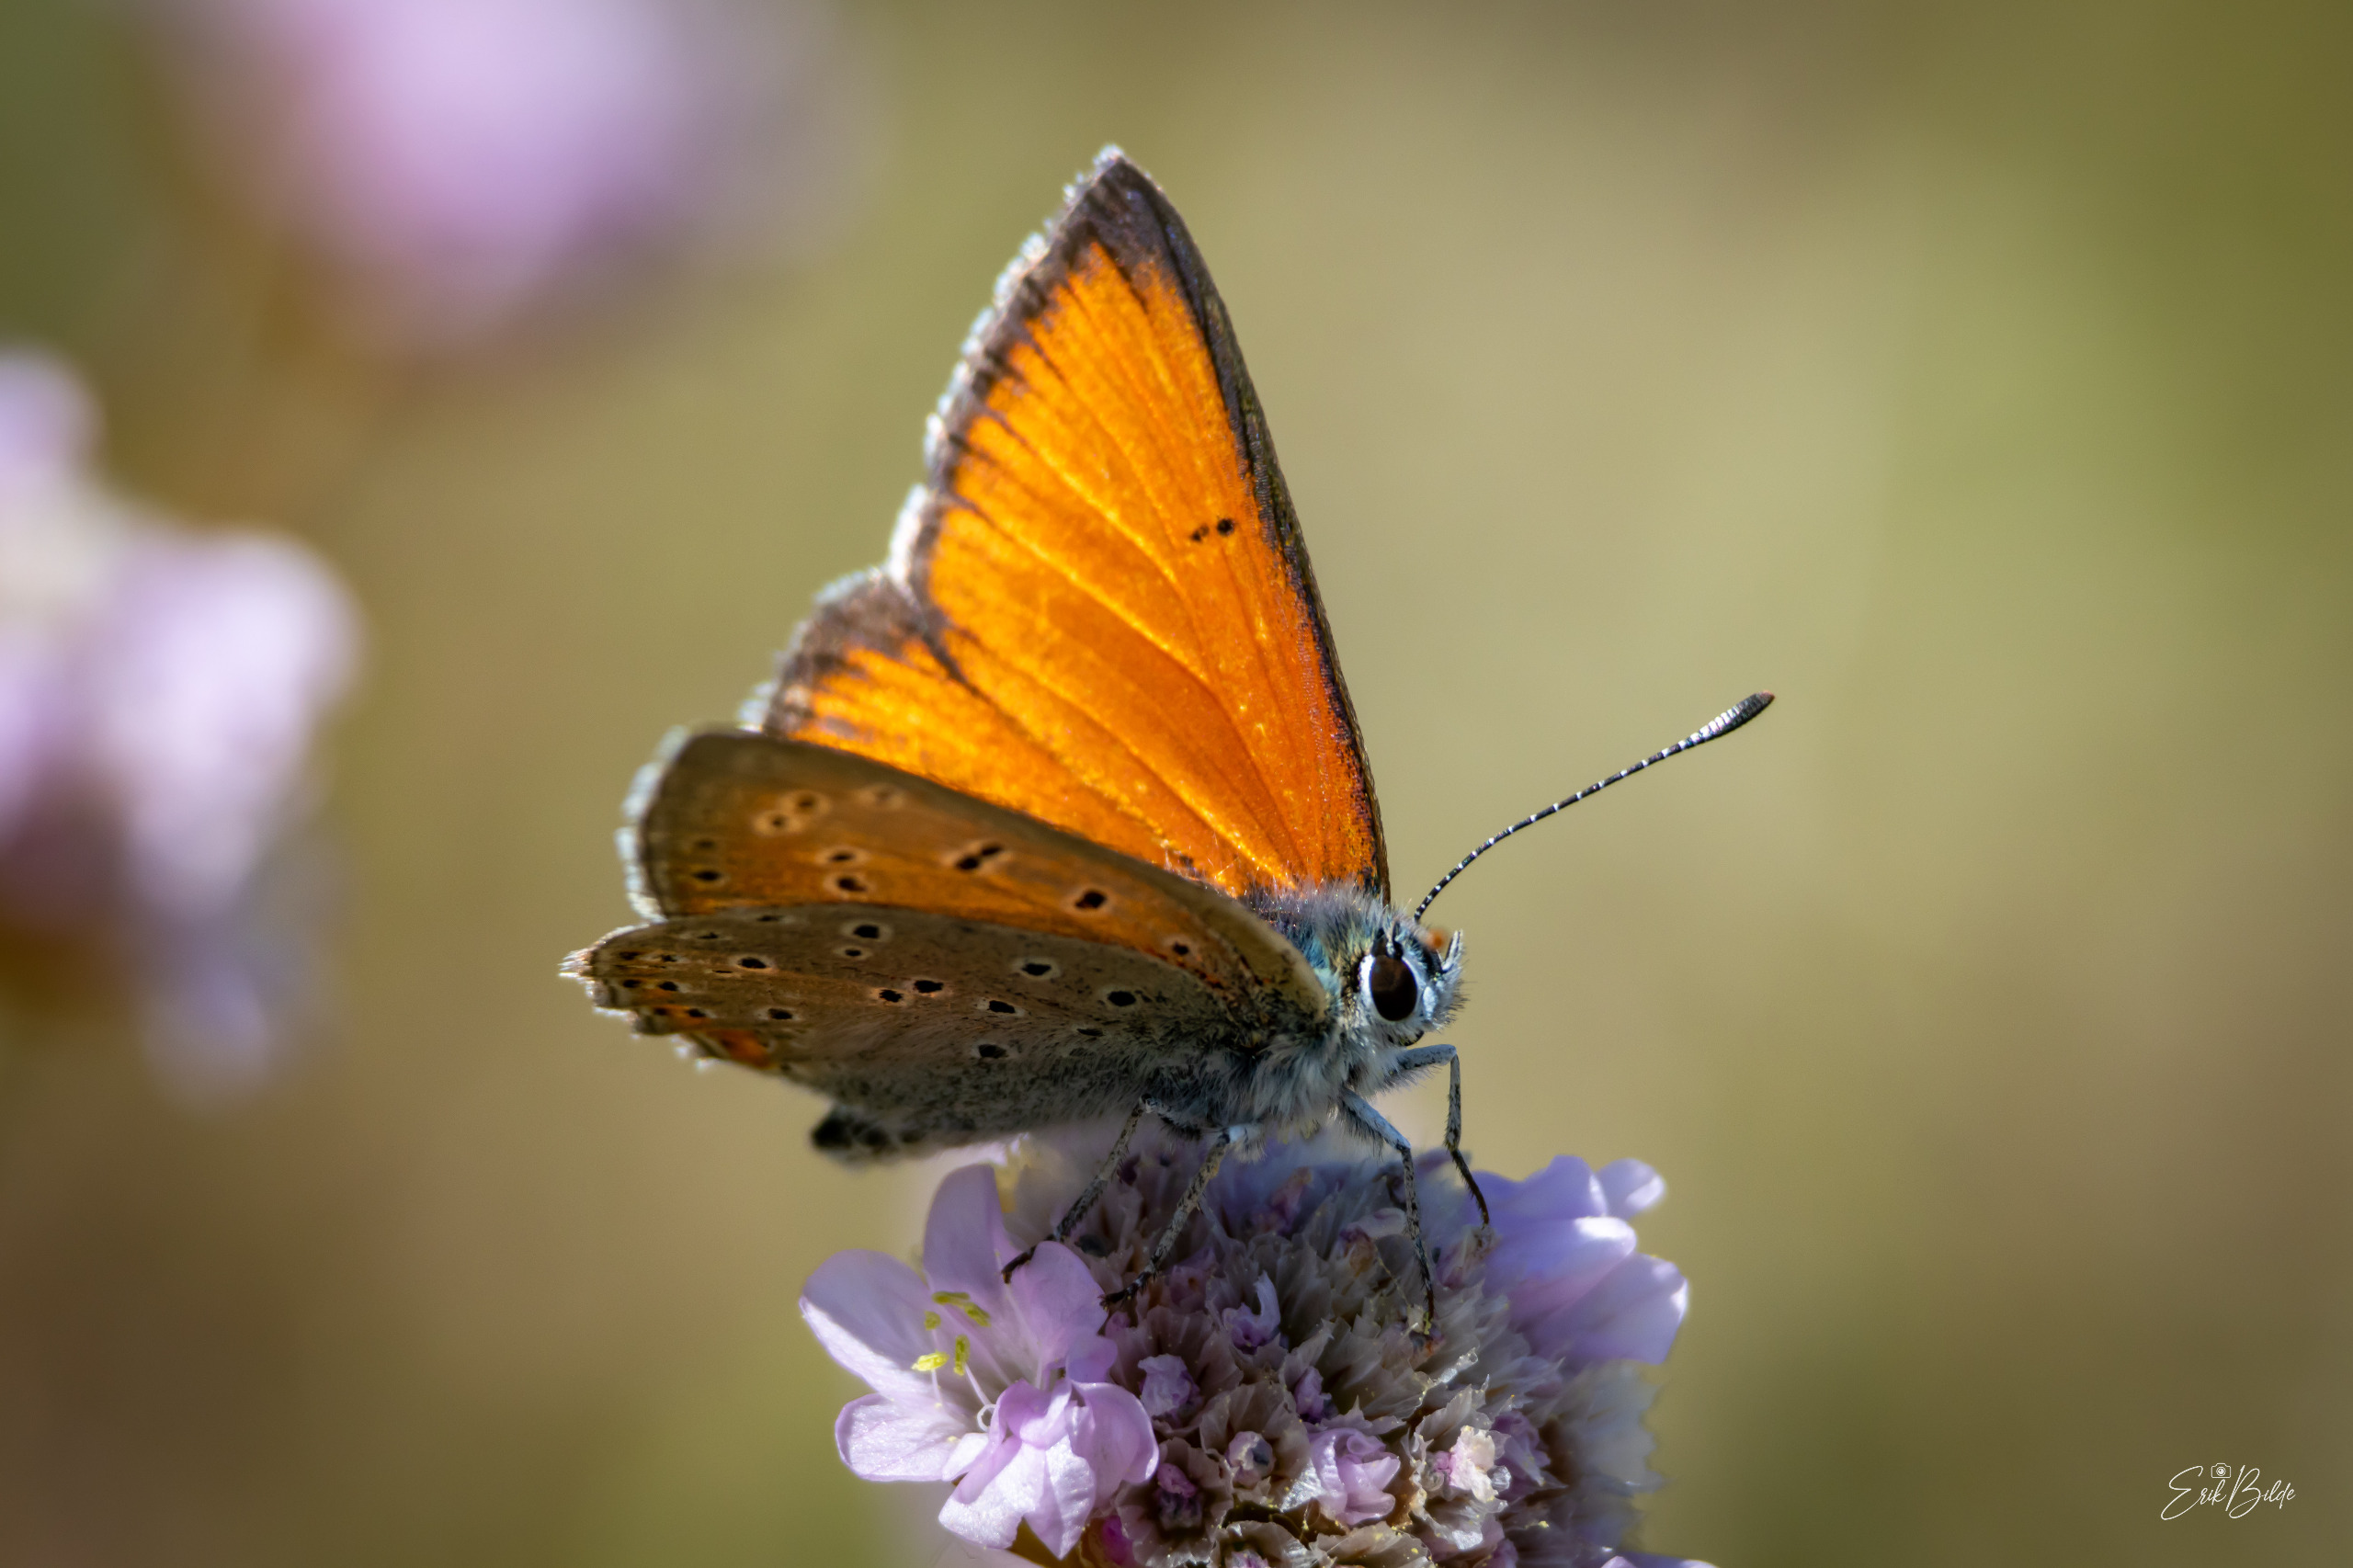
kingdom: Animalia
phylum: Arthropoda
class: Insecta
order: Lepidoptera
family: Lycaenidae
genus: Palaeochrysophanus
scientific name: Palaeochrysophanus hippothoe
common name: Violetrandet ildfugl
